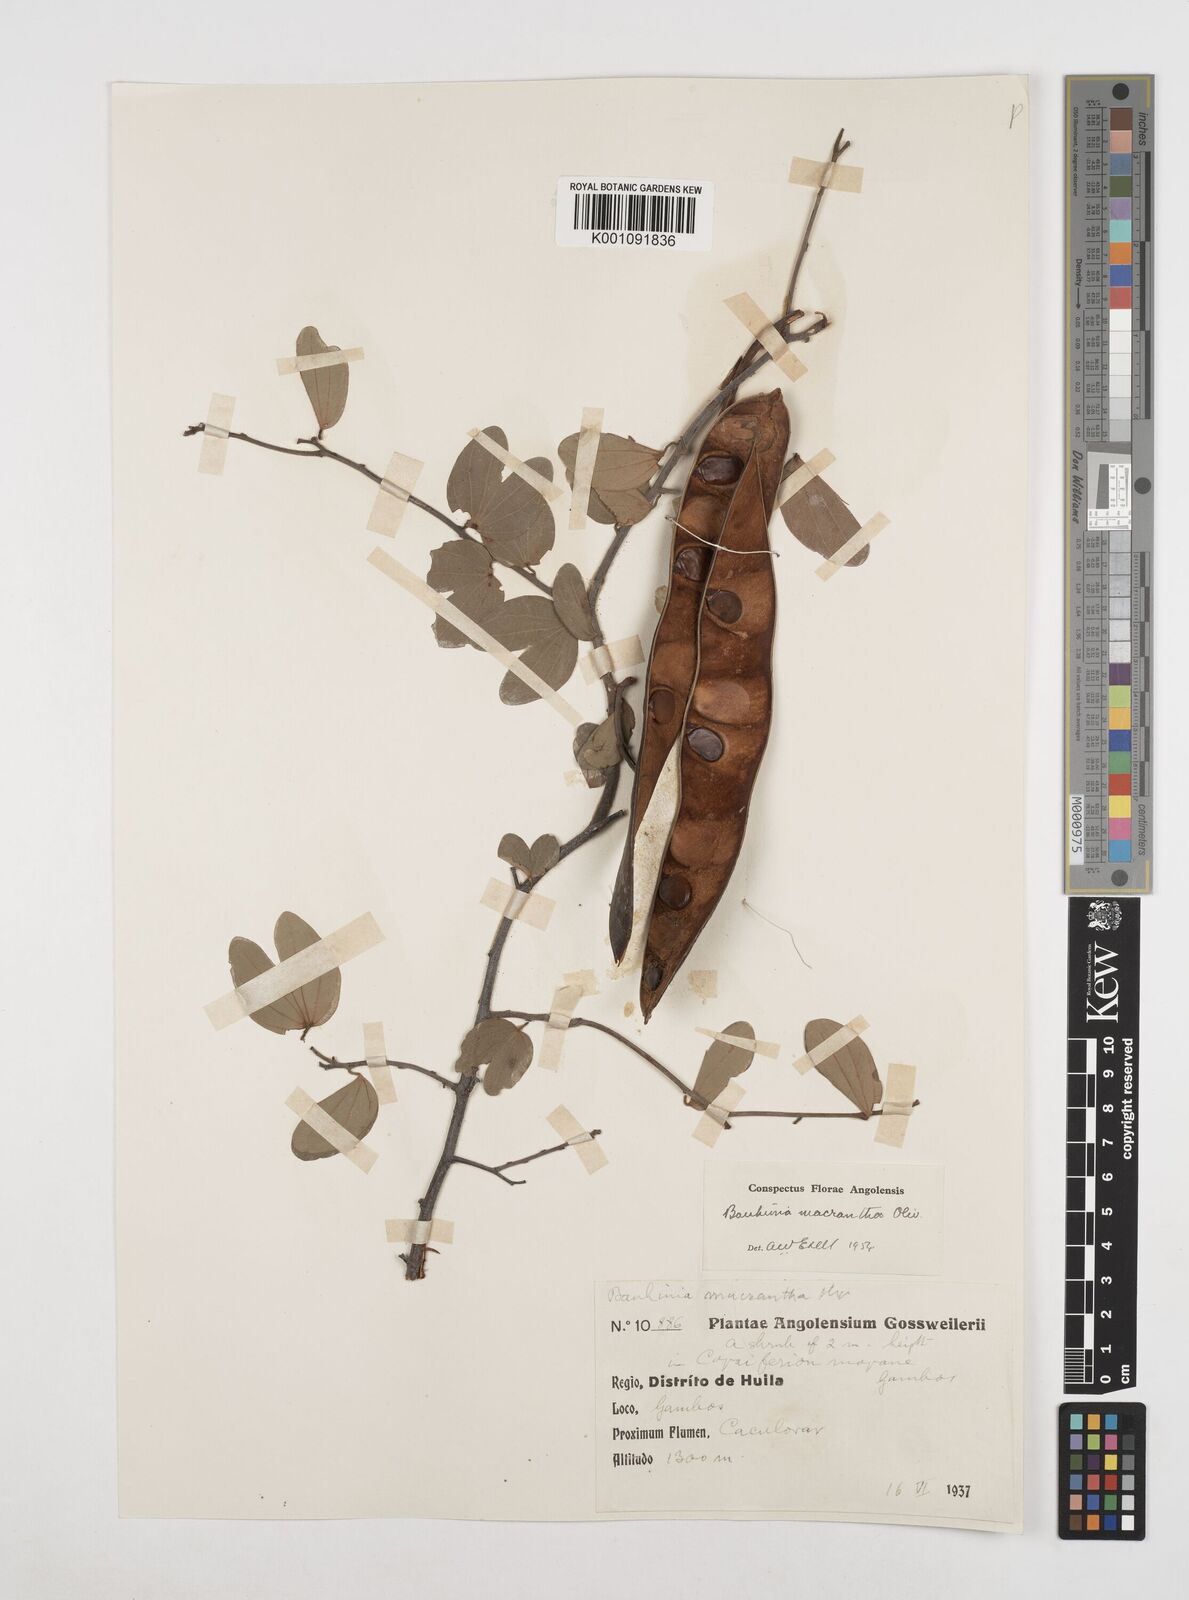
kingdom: Plantae
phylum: Tracheophyta
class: Magnoliopsida
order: Fabales
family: Fabaceae
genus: Bauhinia
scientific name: Bauhinia macrantha
